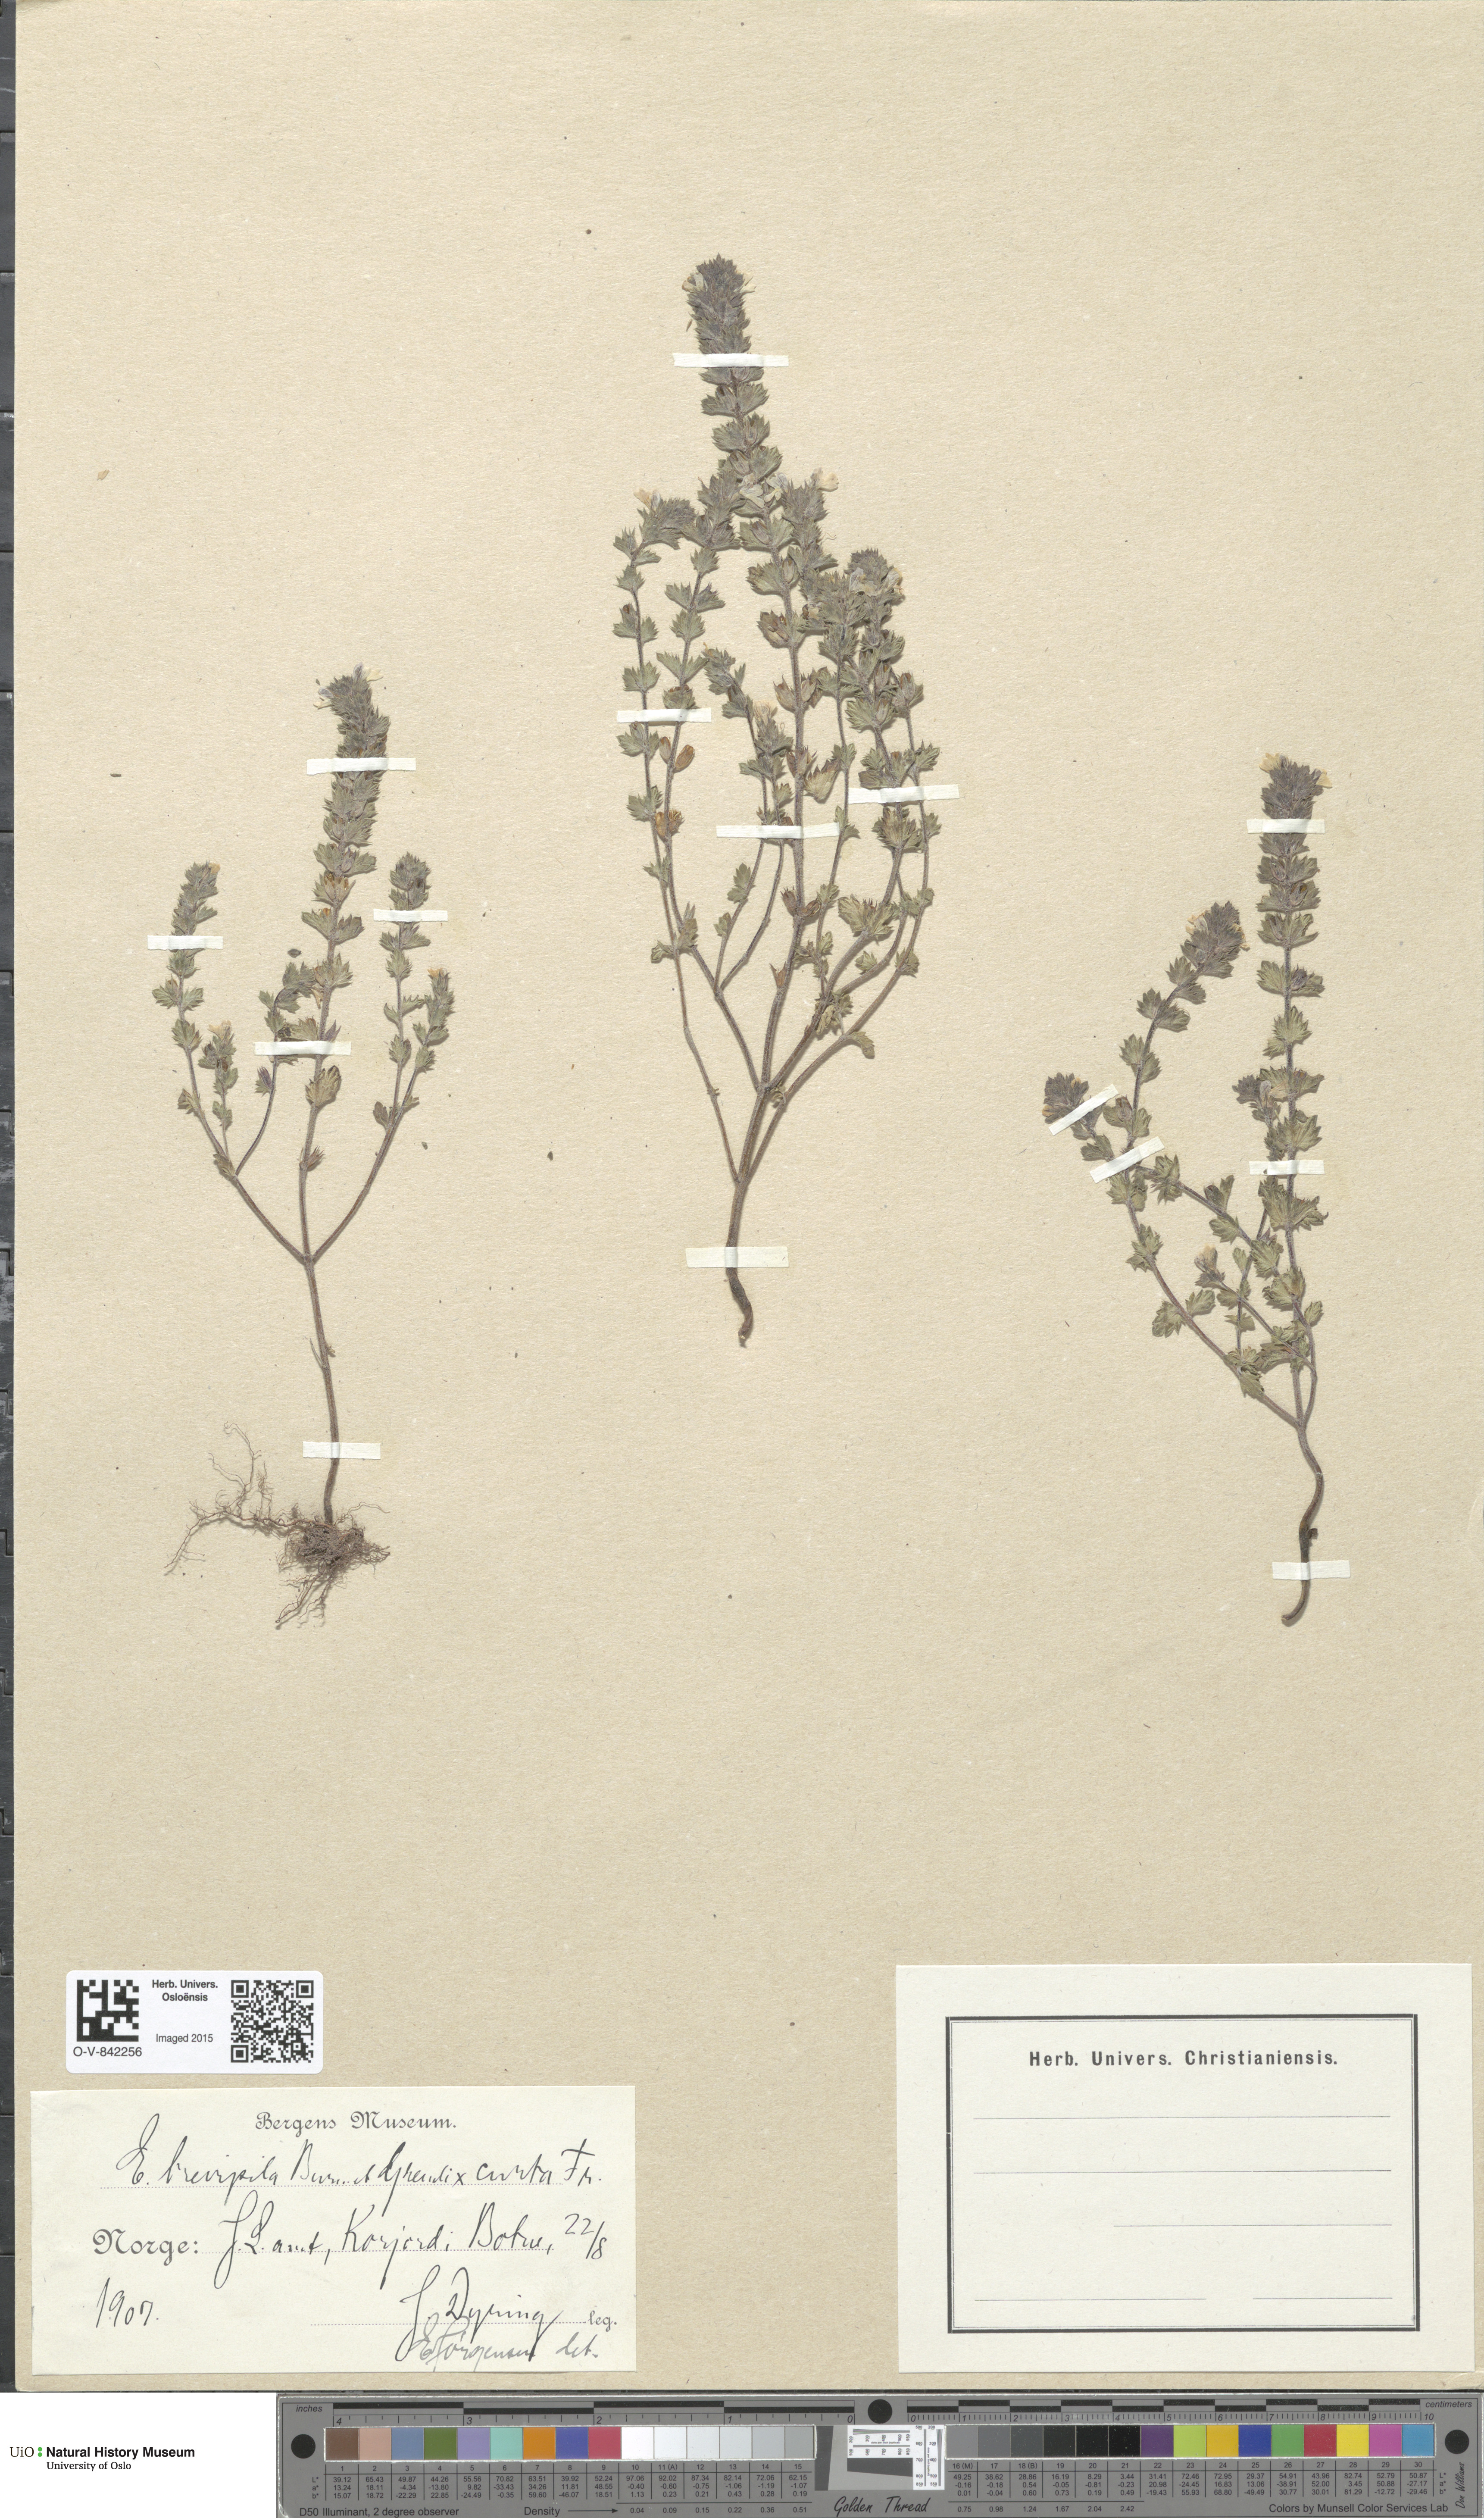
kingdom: Plantae
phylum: Tracheophyta
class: Magnoliopsida
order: Lamiales
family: Orobanchaceae
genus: Euphrasia
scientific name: Euphrasia
